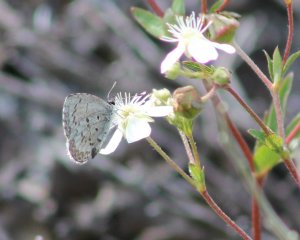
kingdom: Animalia
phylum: Arthropoda
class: Insecta
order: Lepidoptera
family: Lycaenidae
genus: Lycaeides
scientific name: Lycaeides idas
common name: Northern Blue
